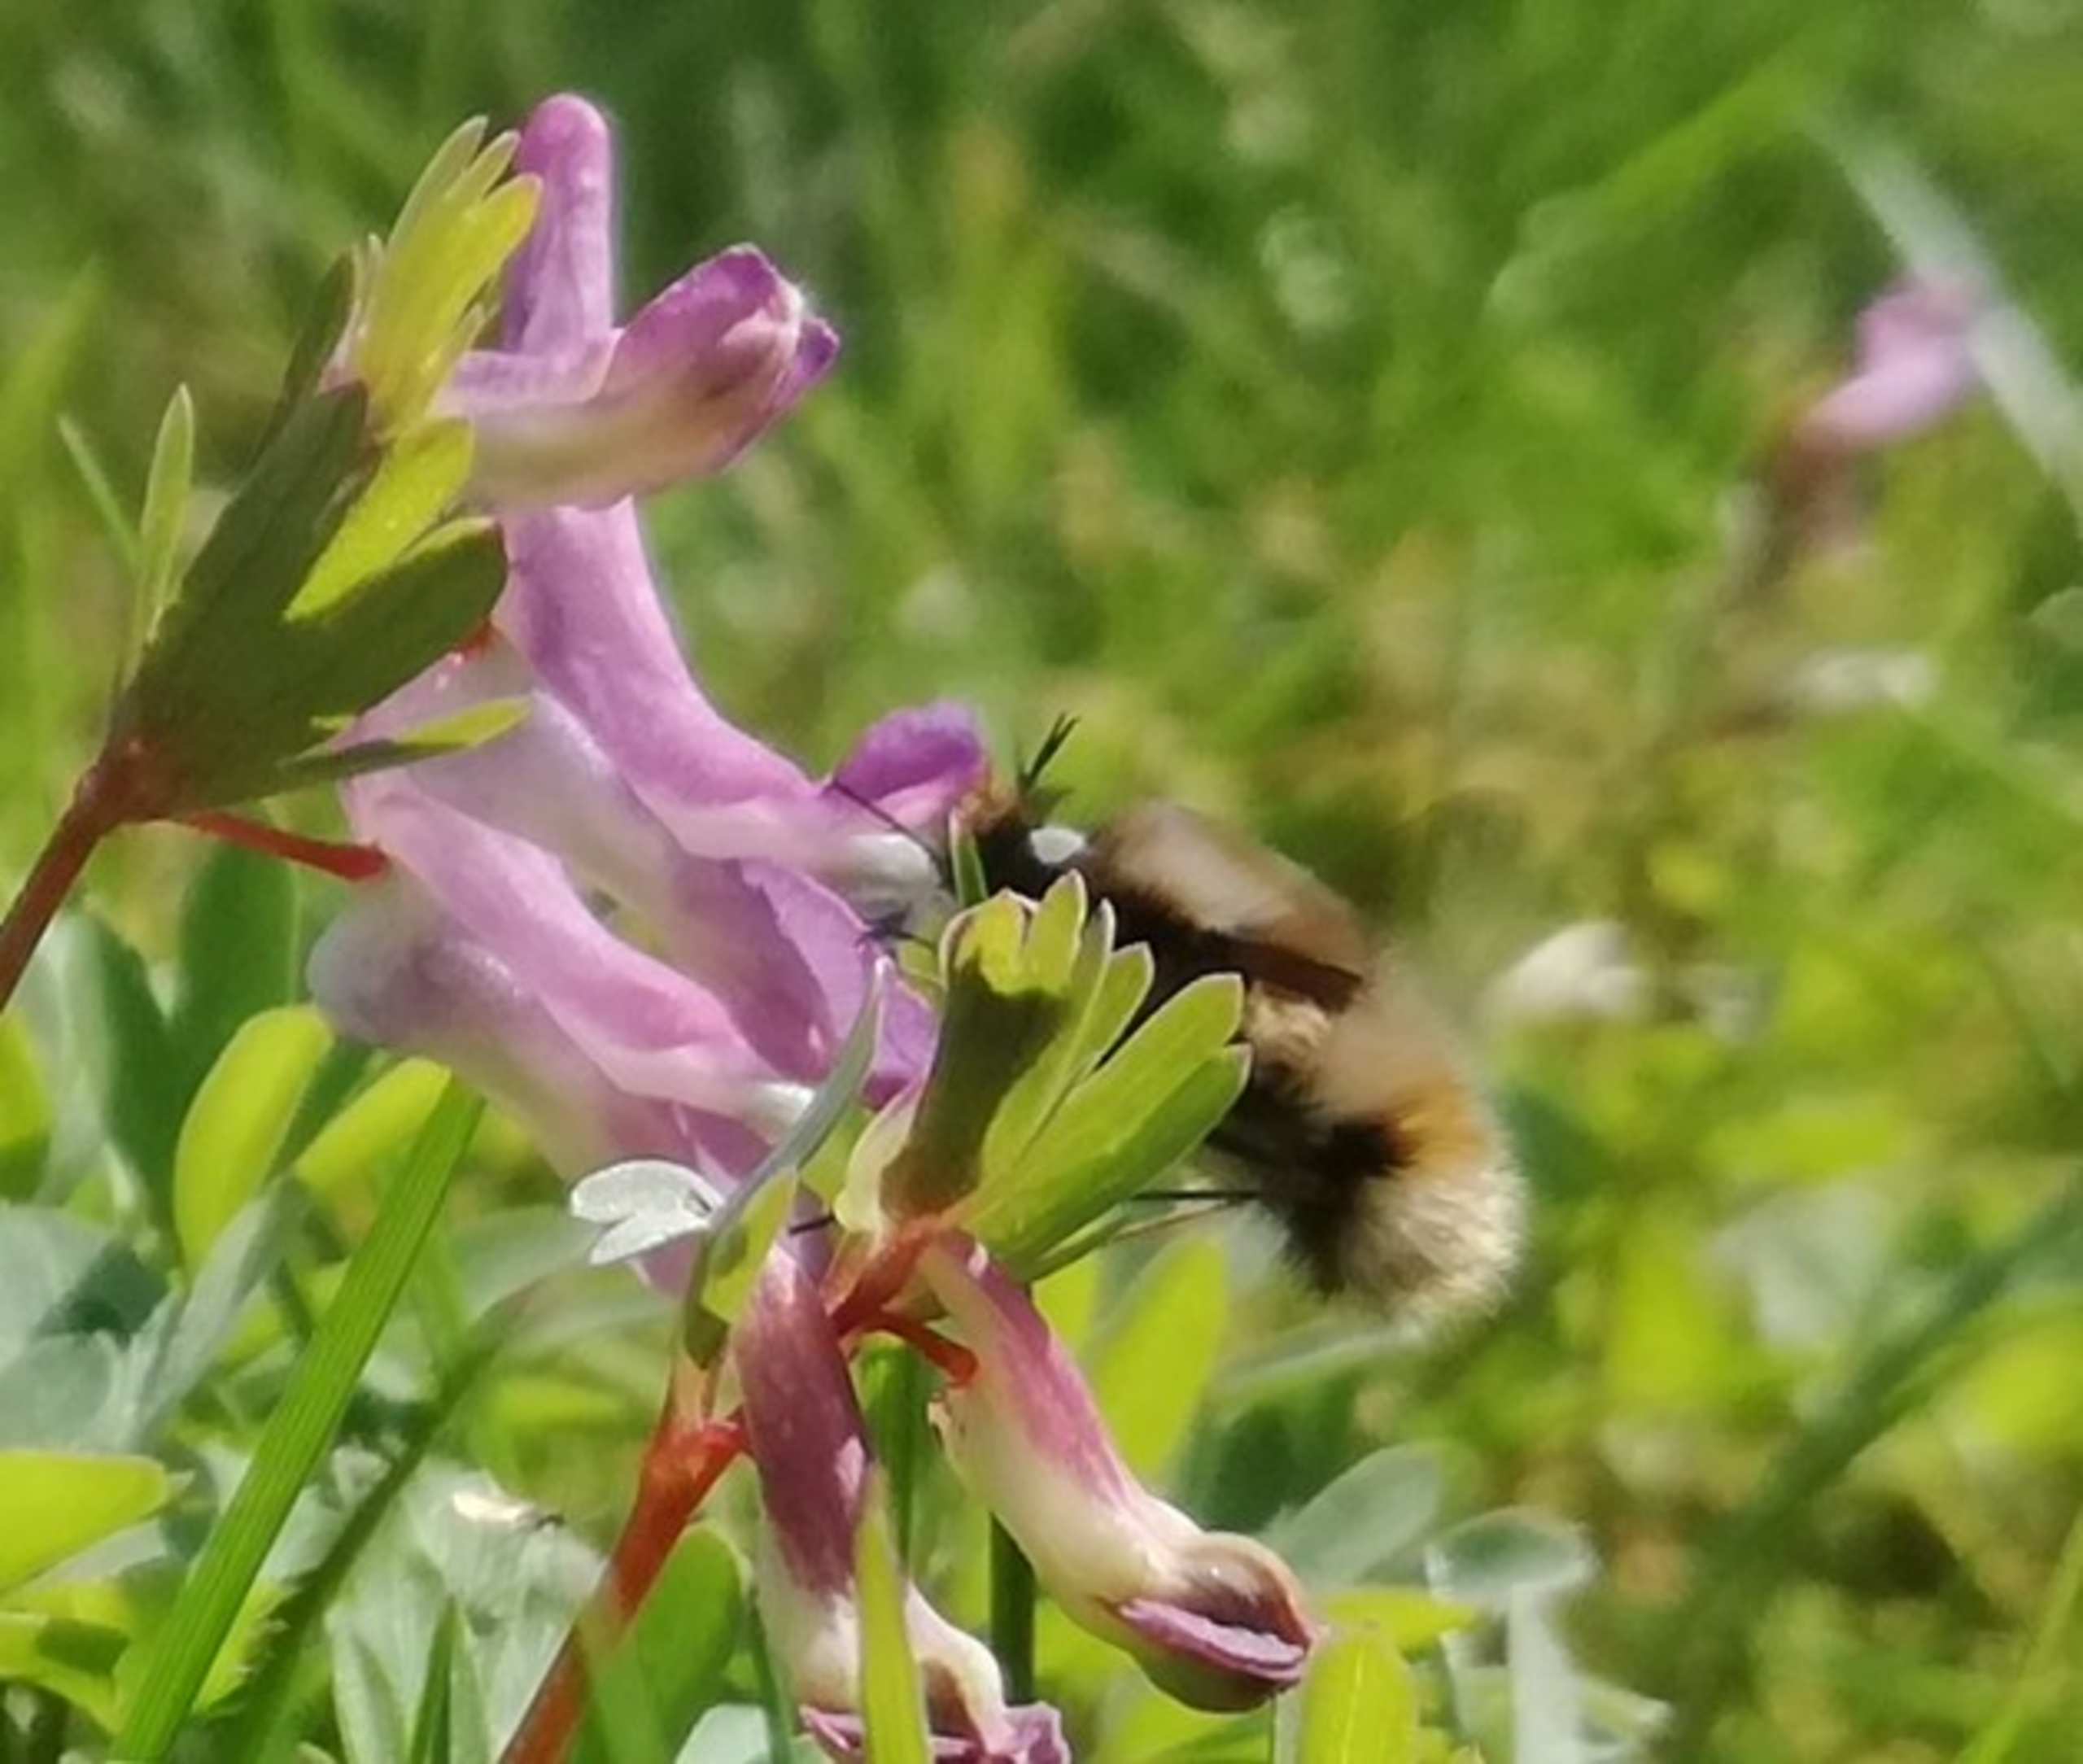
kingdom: Animalia
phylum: Arthropoda
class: Insecta
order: Diptera
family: Bombyliidae
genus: Bombylius
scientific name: Bombylius major
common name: Stor humleflue
